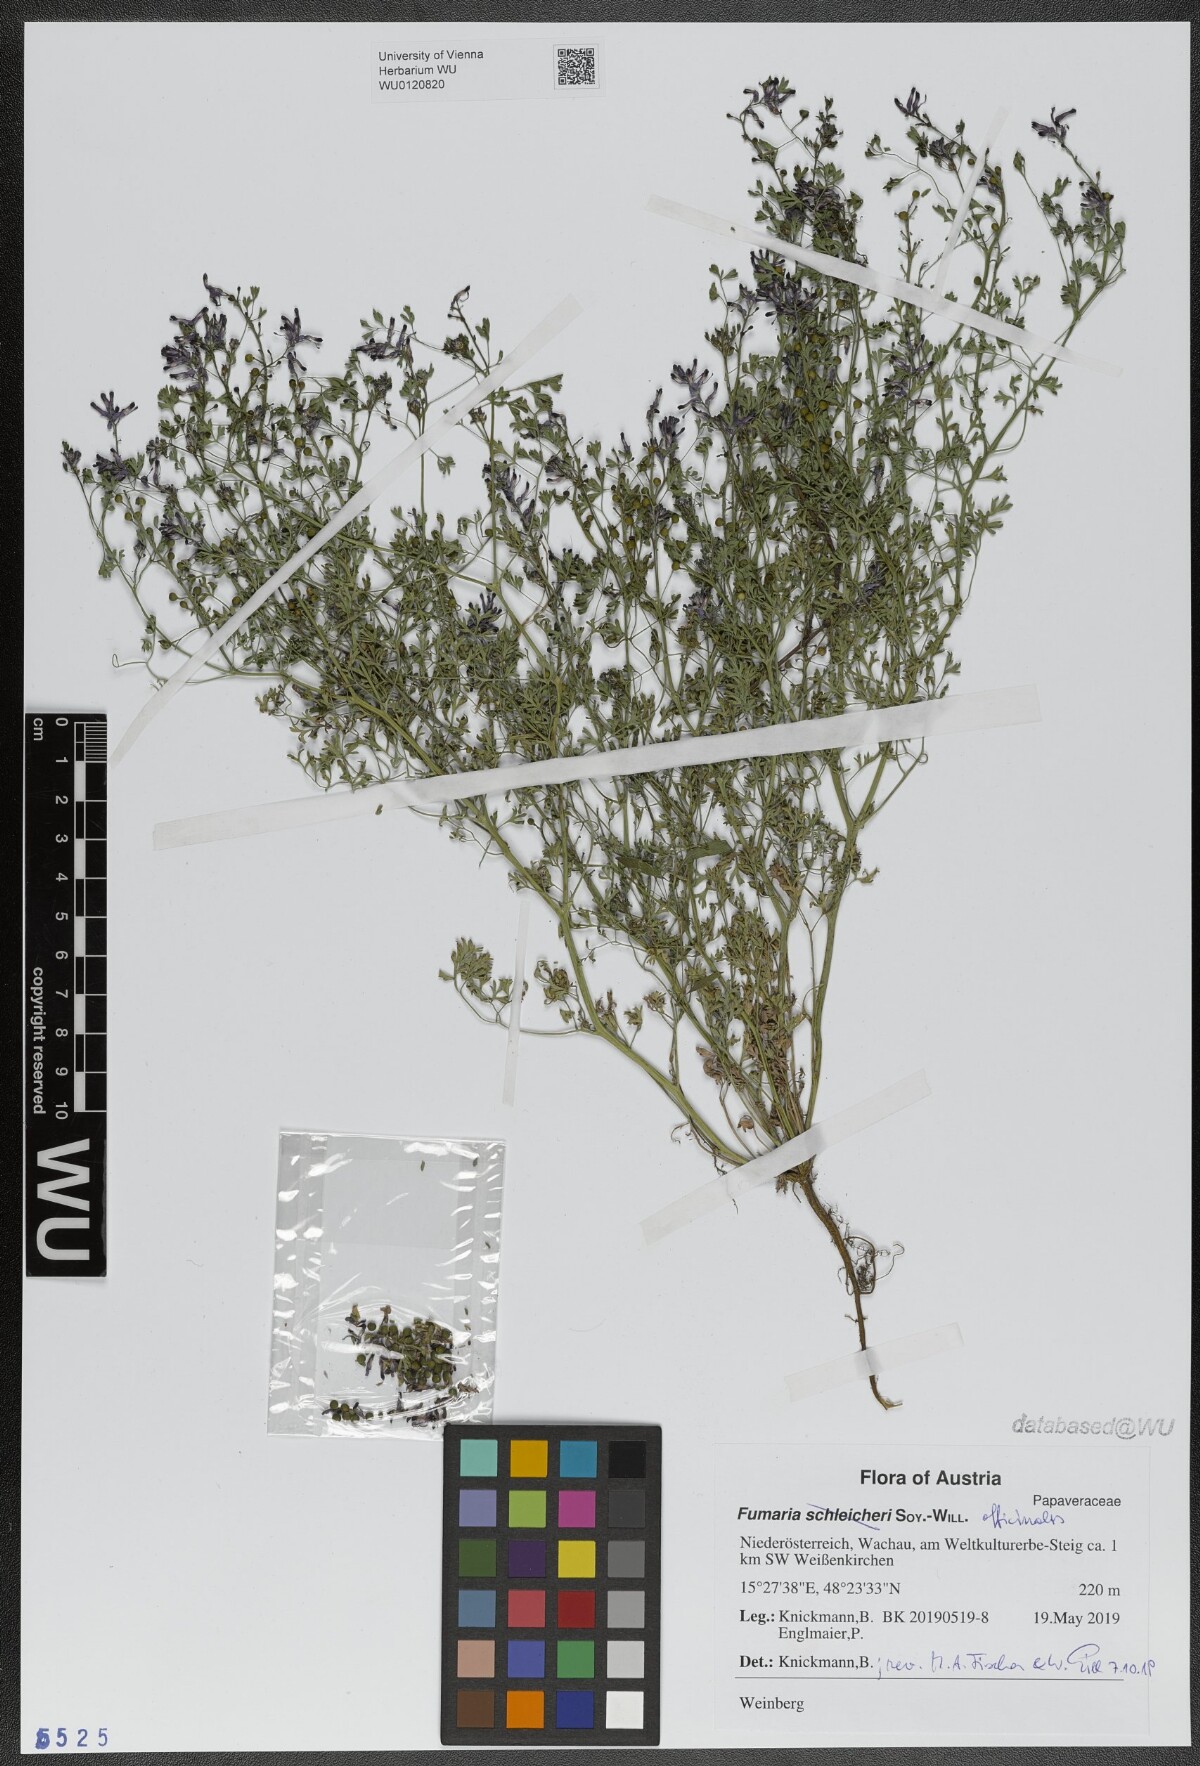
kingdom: Plantae
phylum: Tracheophyta
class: Magnoliopsida
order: Ranunculales
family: Papaveraceae
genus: Fumaria
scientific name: Fumaria officinalis
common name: Common fumitory
